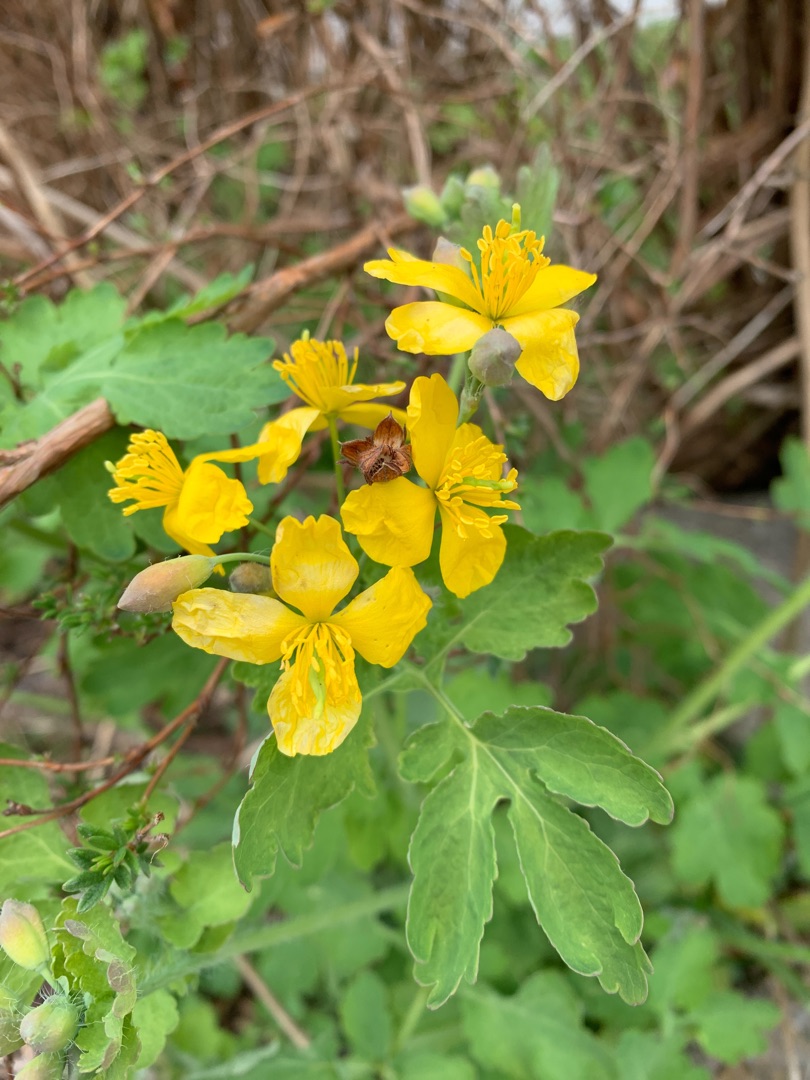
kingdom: Plantae
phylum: Tracheophyta
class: Magnoliopsida
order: Ranunculales
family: Papaveraceae
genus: Chelidonium
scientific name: Chelidonium majus
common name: Svaleurt
